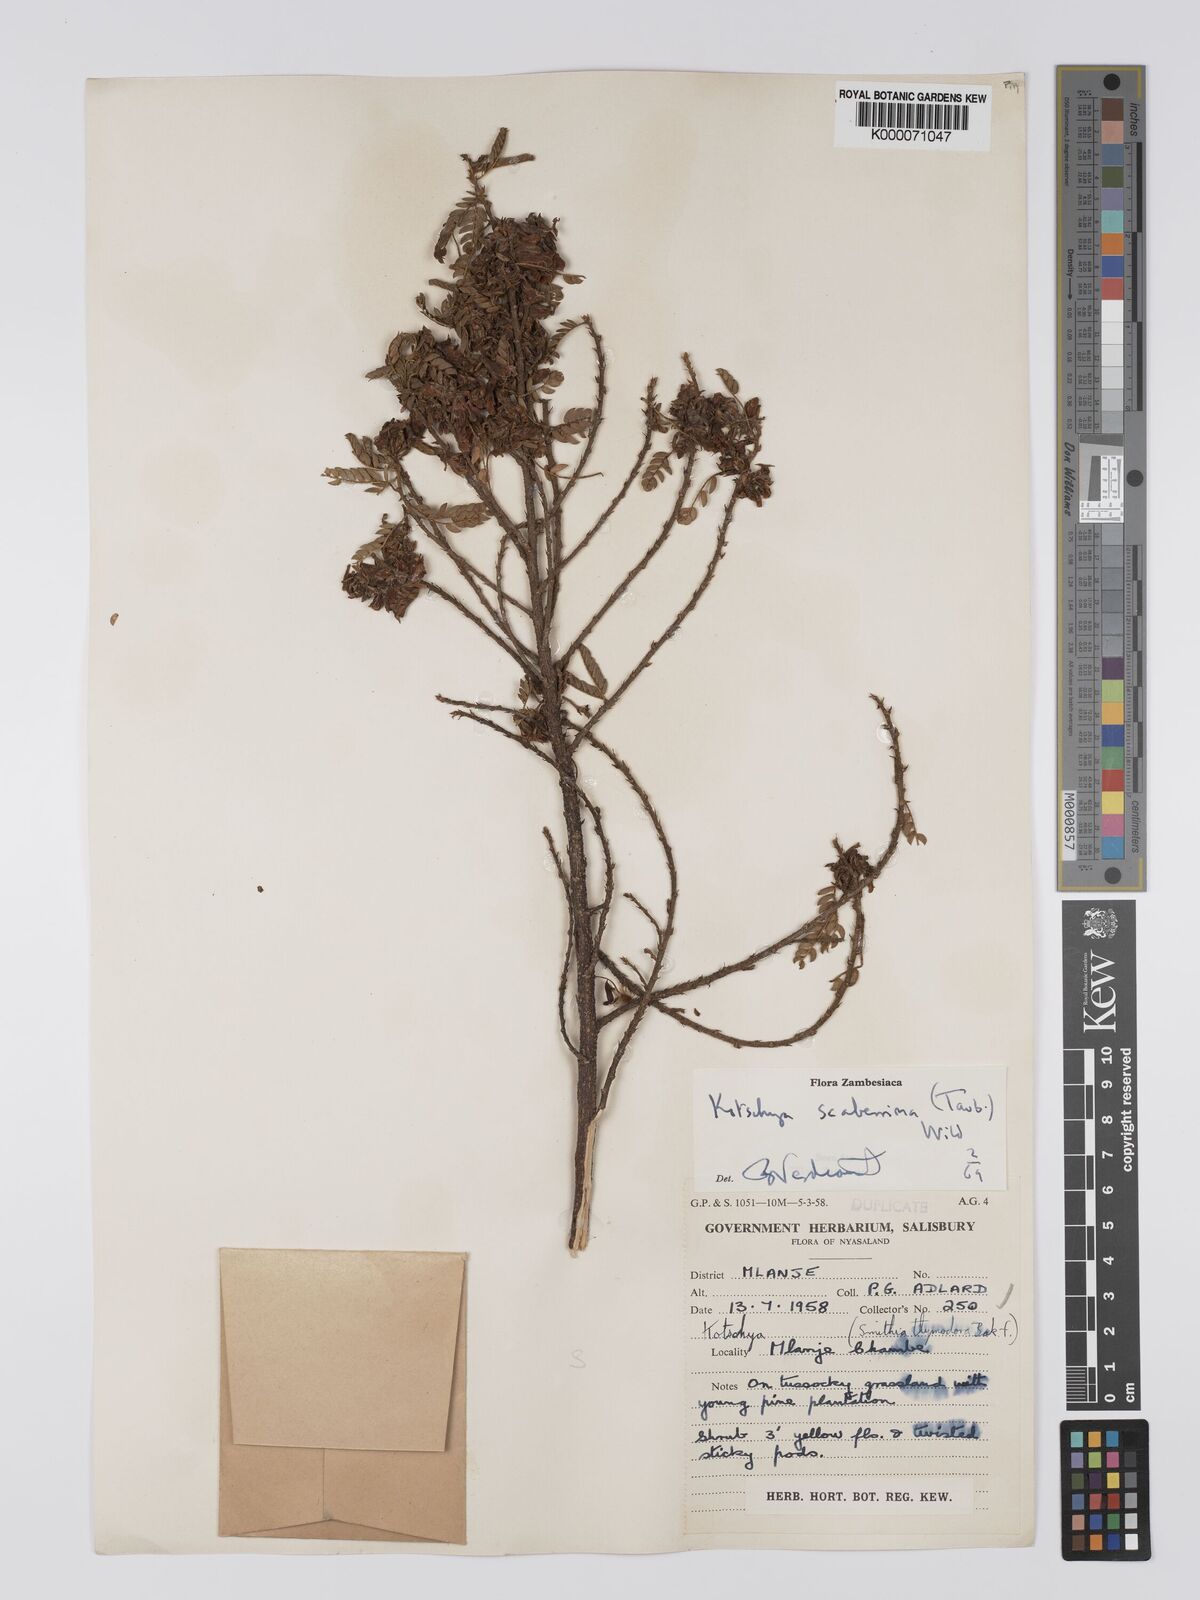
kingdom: Plantae
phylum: Tracheophyta
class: Magnoliopsida
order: Fabales
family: Fabaceae
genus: Kotschya
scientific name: Kotschya scaberrima
